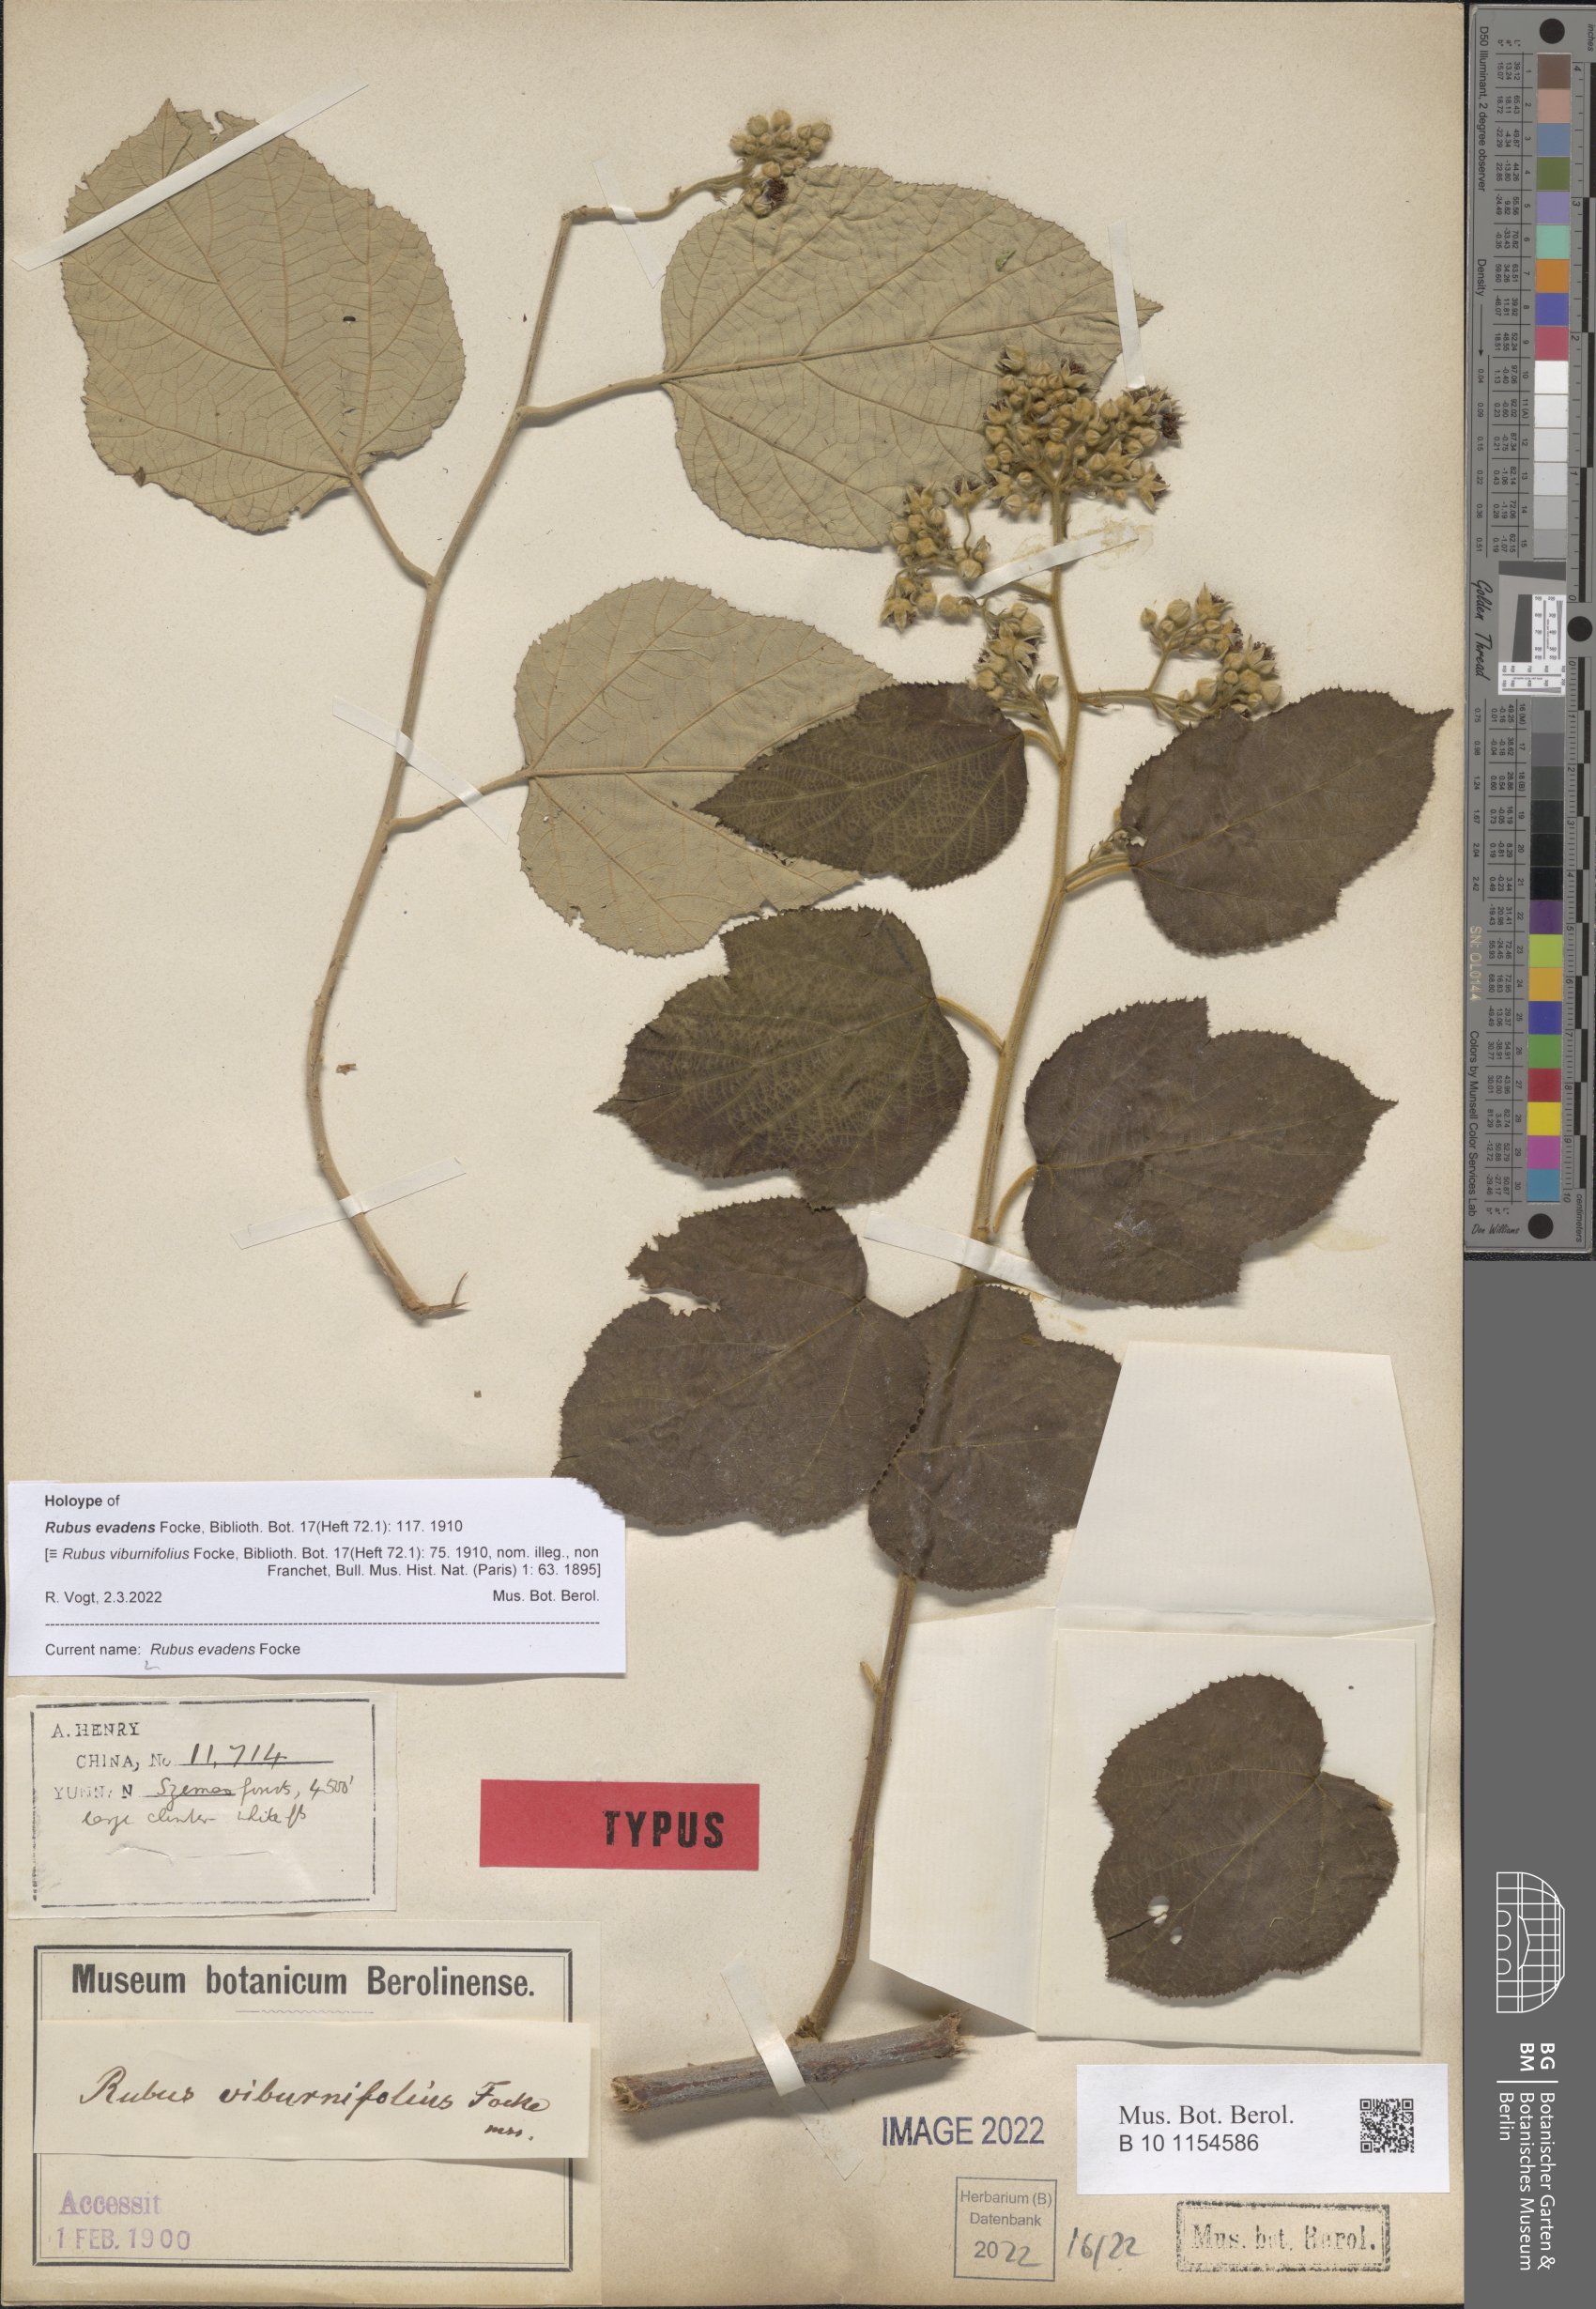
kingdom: Plantae
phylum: Tracheophyta
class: Magnoliopsida
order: Rosales
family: Rosaceae
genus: Rubus
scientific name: Rubus evadens
